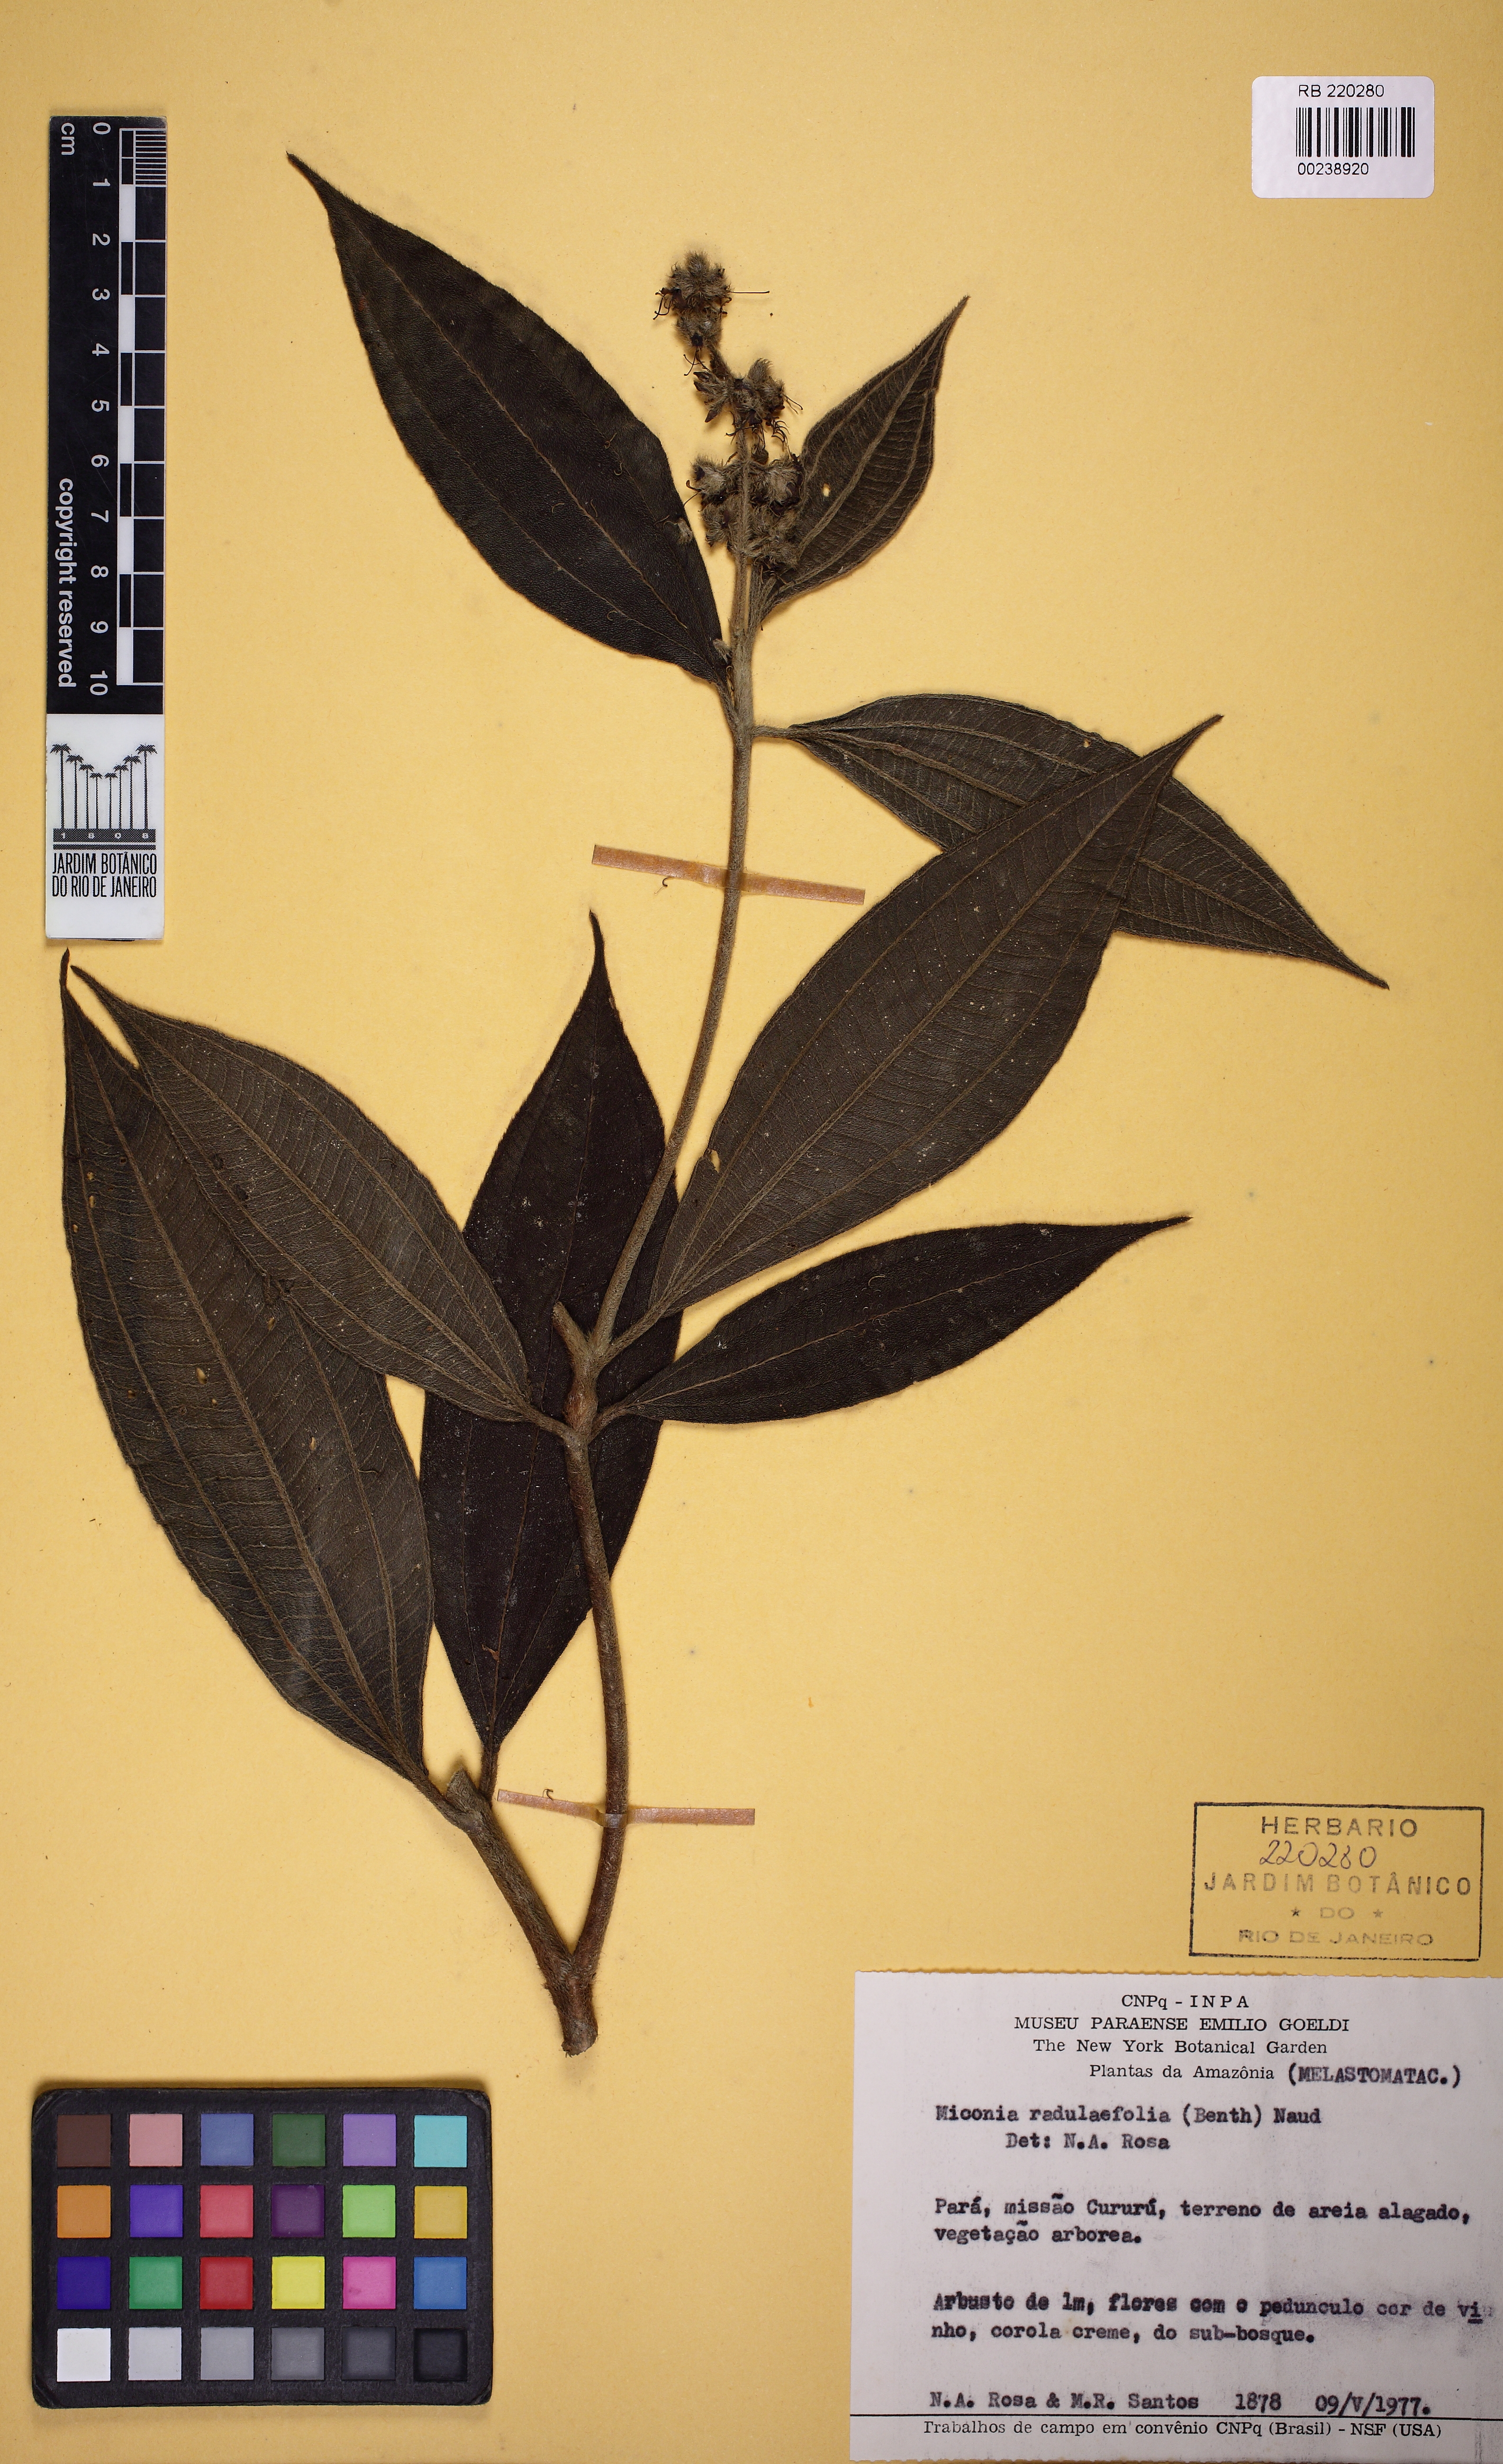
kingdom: Plantae
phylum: Tracheophyta
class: Magnoliopsida
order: Myrtales
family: Melastomataceae
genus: Miconia
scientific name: Miconia radulifolia
